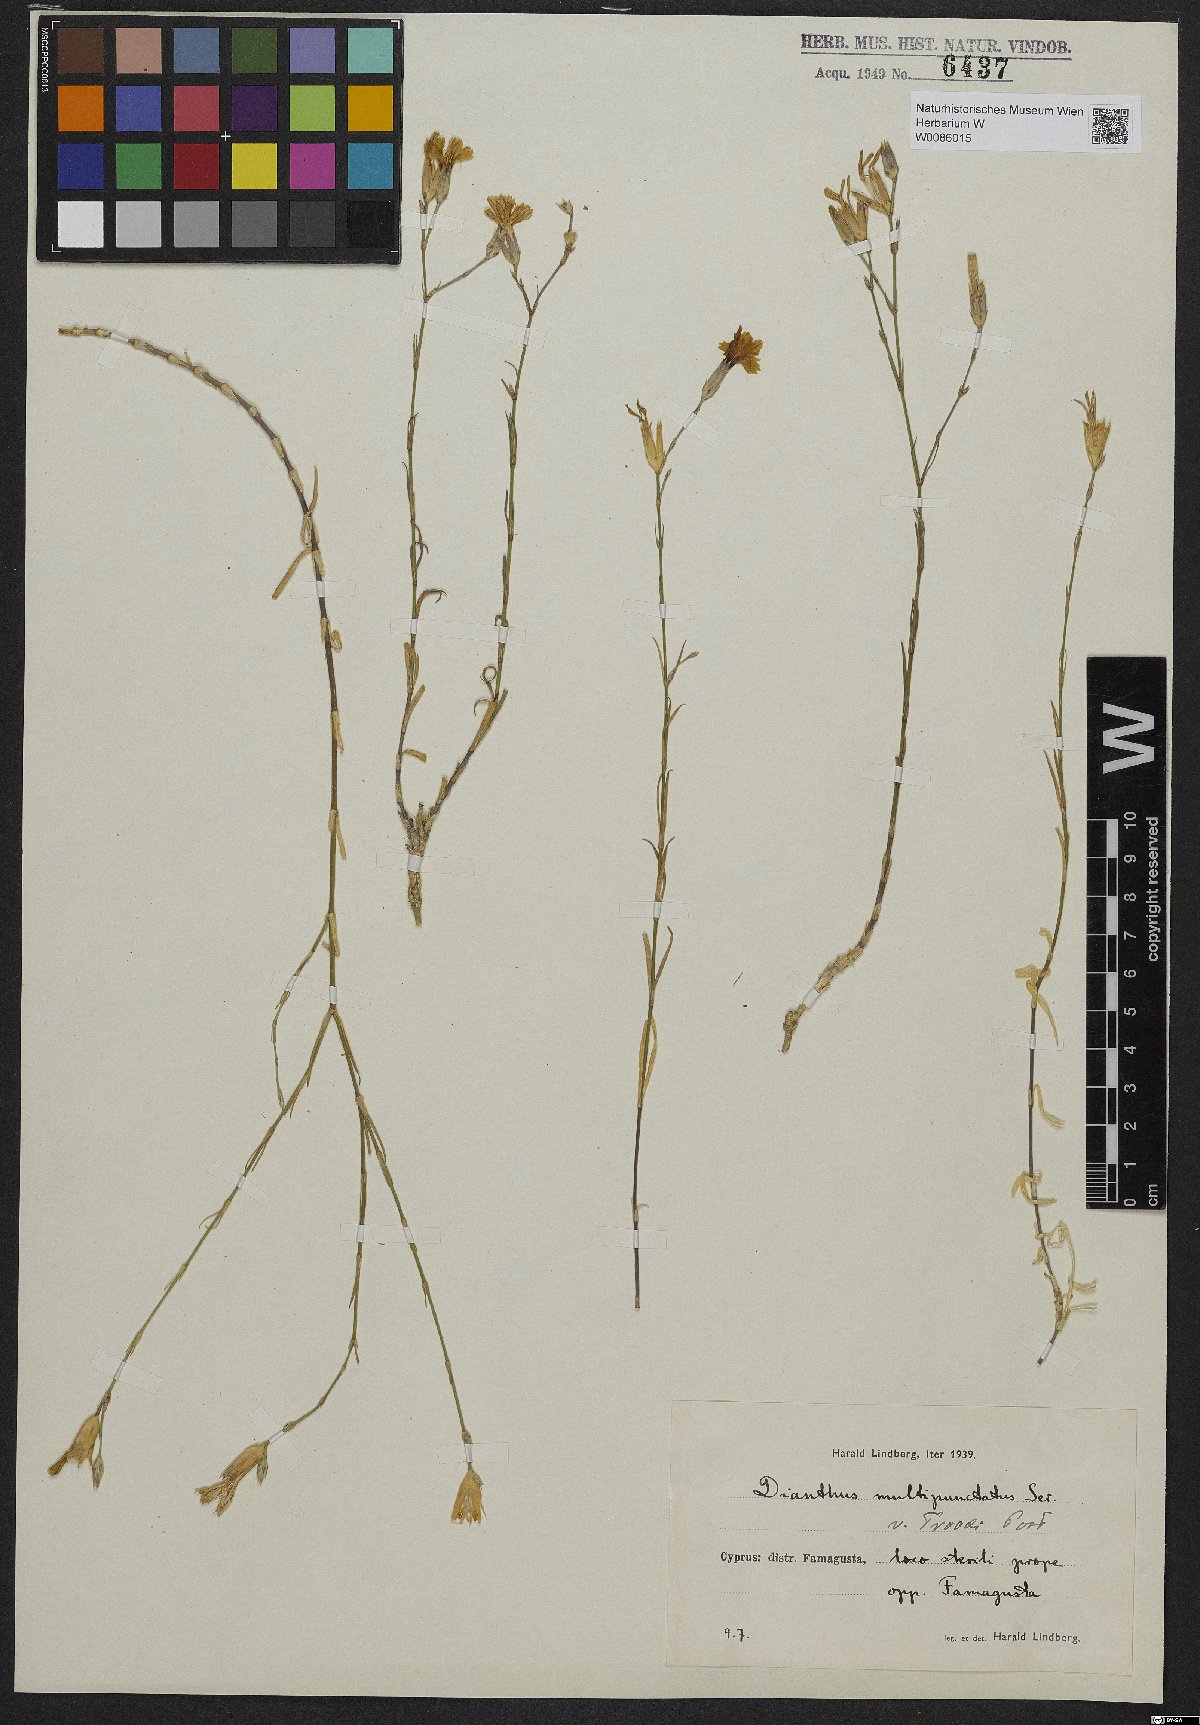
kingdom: Plantae
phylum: Tracheophyta
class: Magnoliopsida
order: Caryophyllales
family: Caryophyllaceae
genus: Dianthus
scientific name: Dianthus strictus
